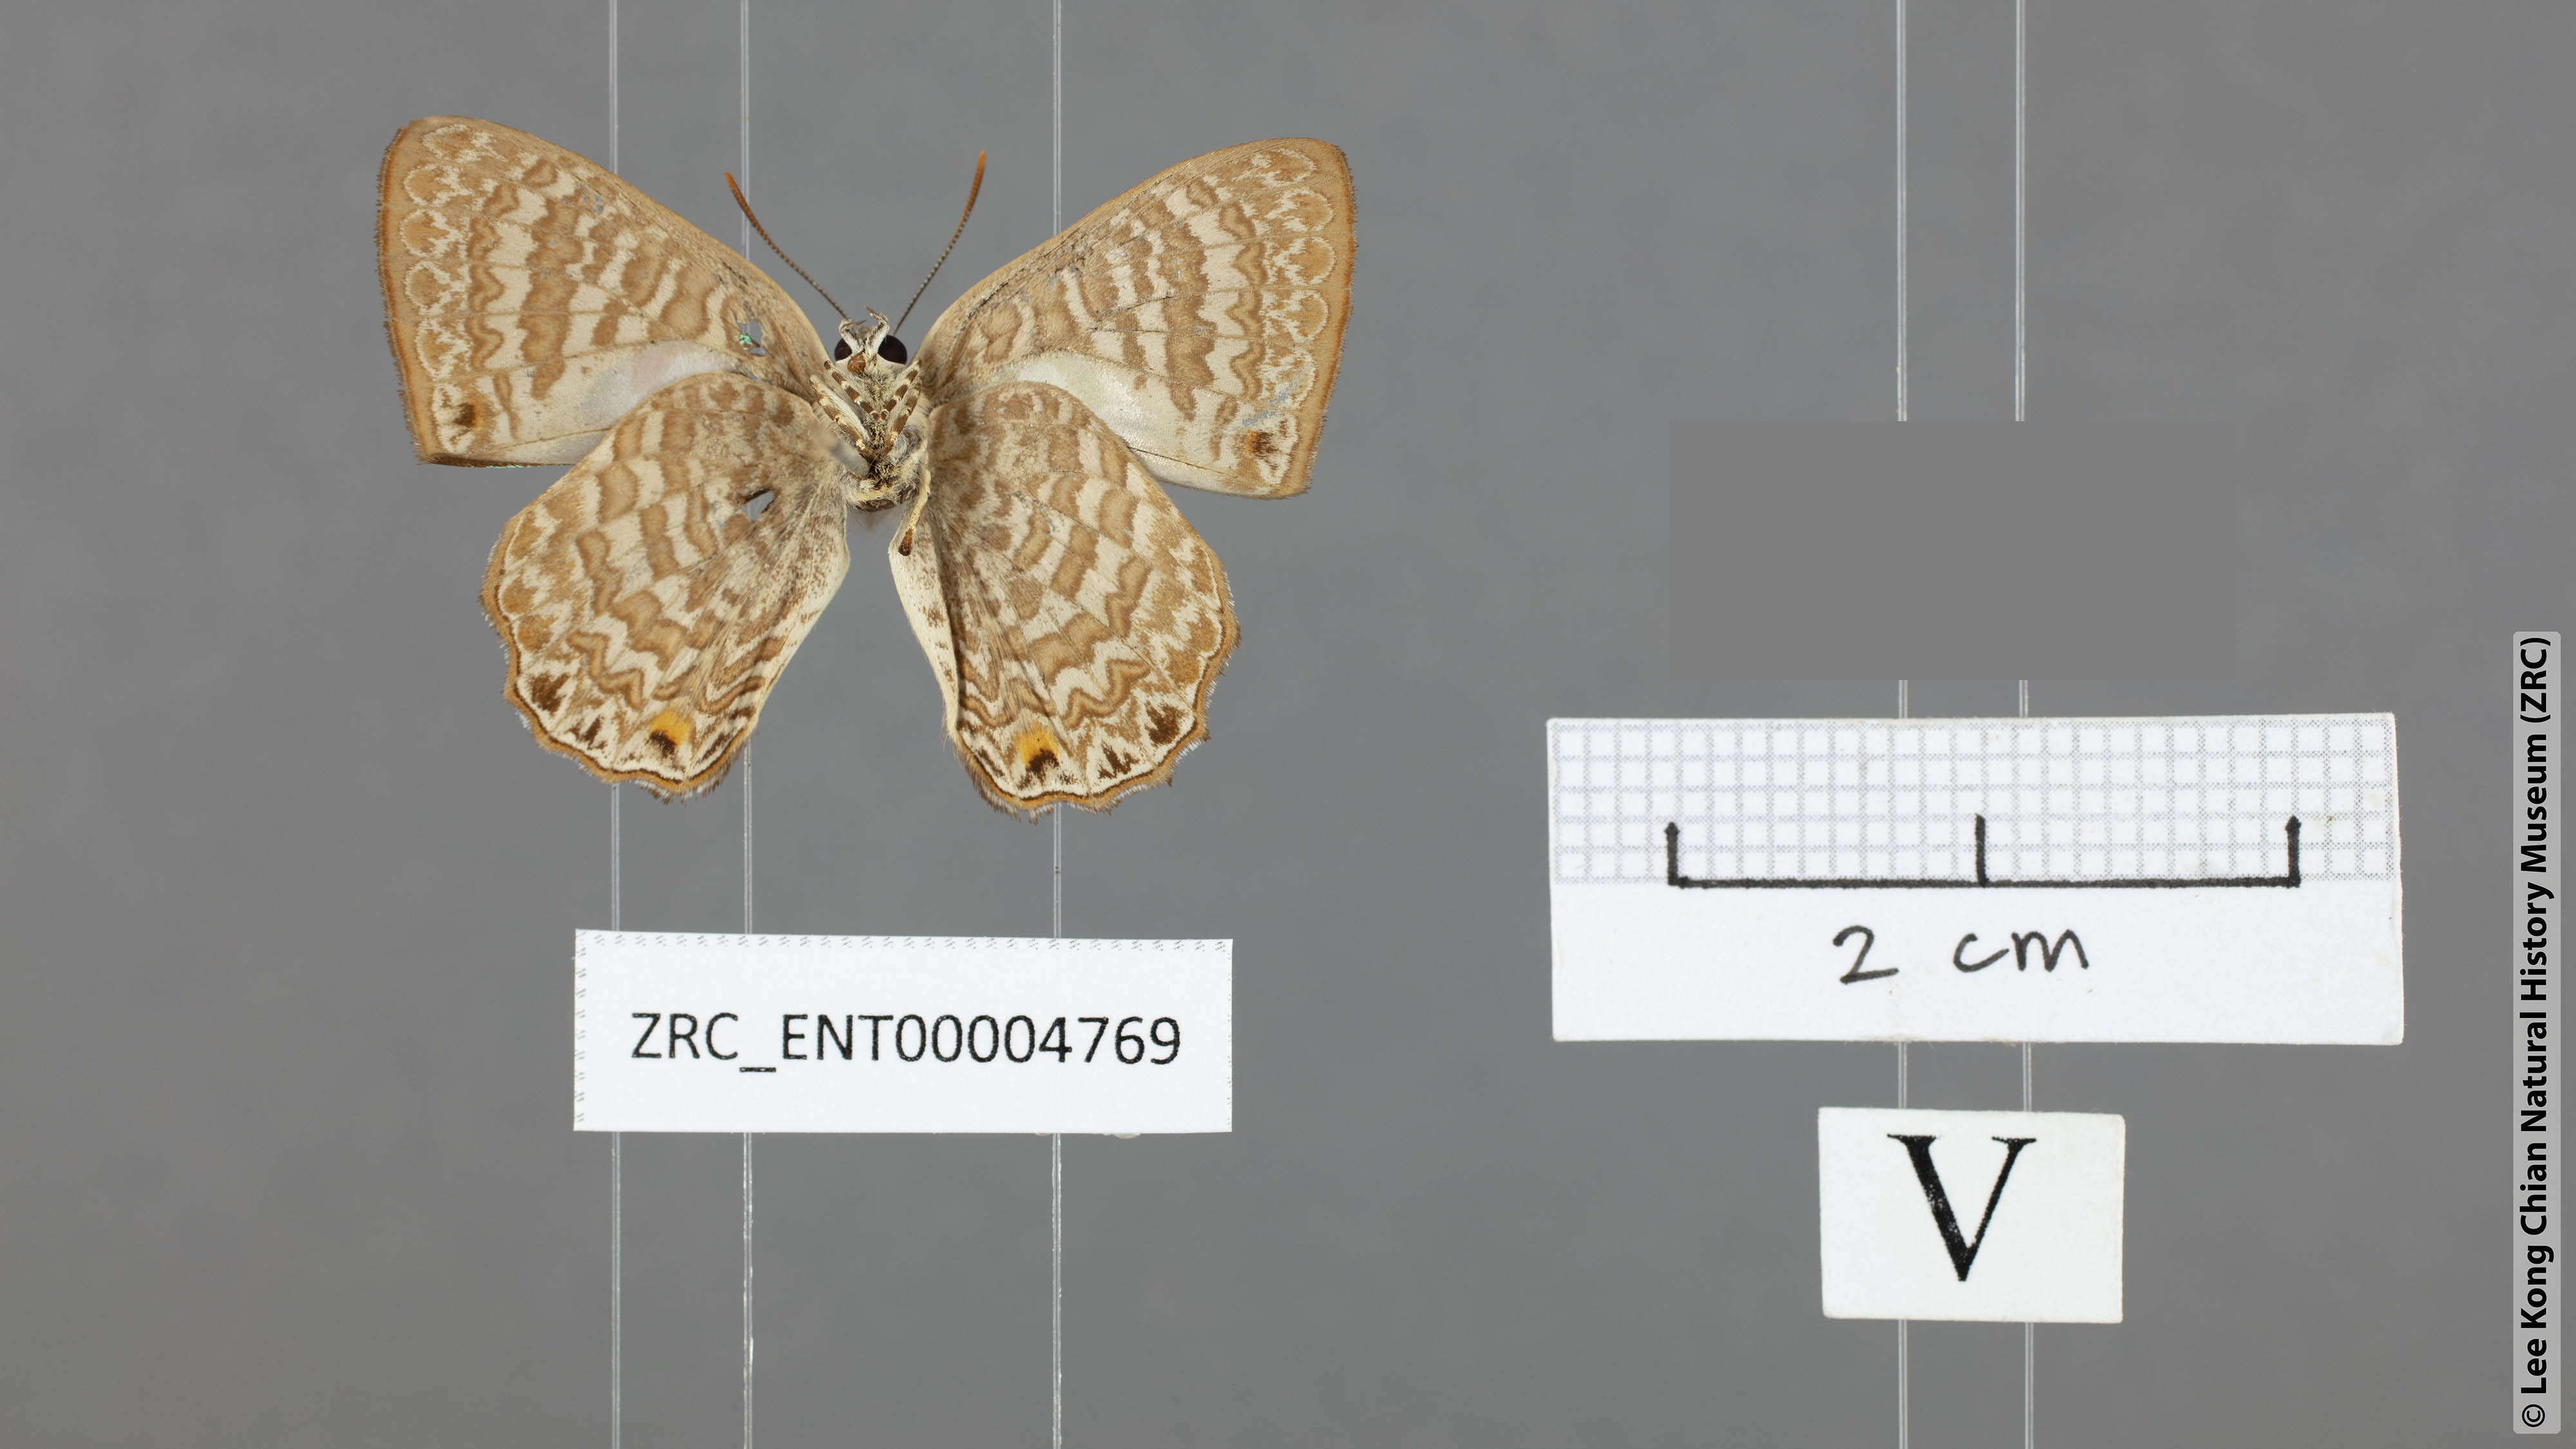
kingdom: Animalia
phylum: Arthropoda
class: Insecta
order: Lepidoptera
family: Lycaenidae
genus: Poritia
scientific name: Poritia promula
